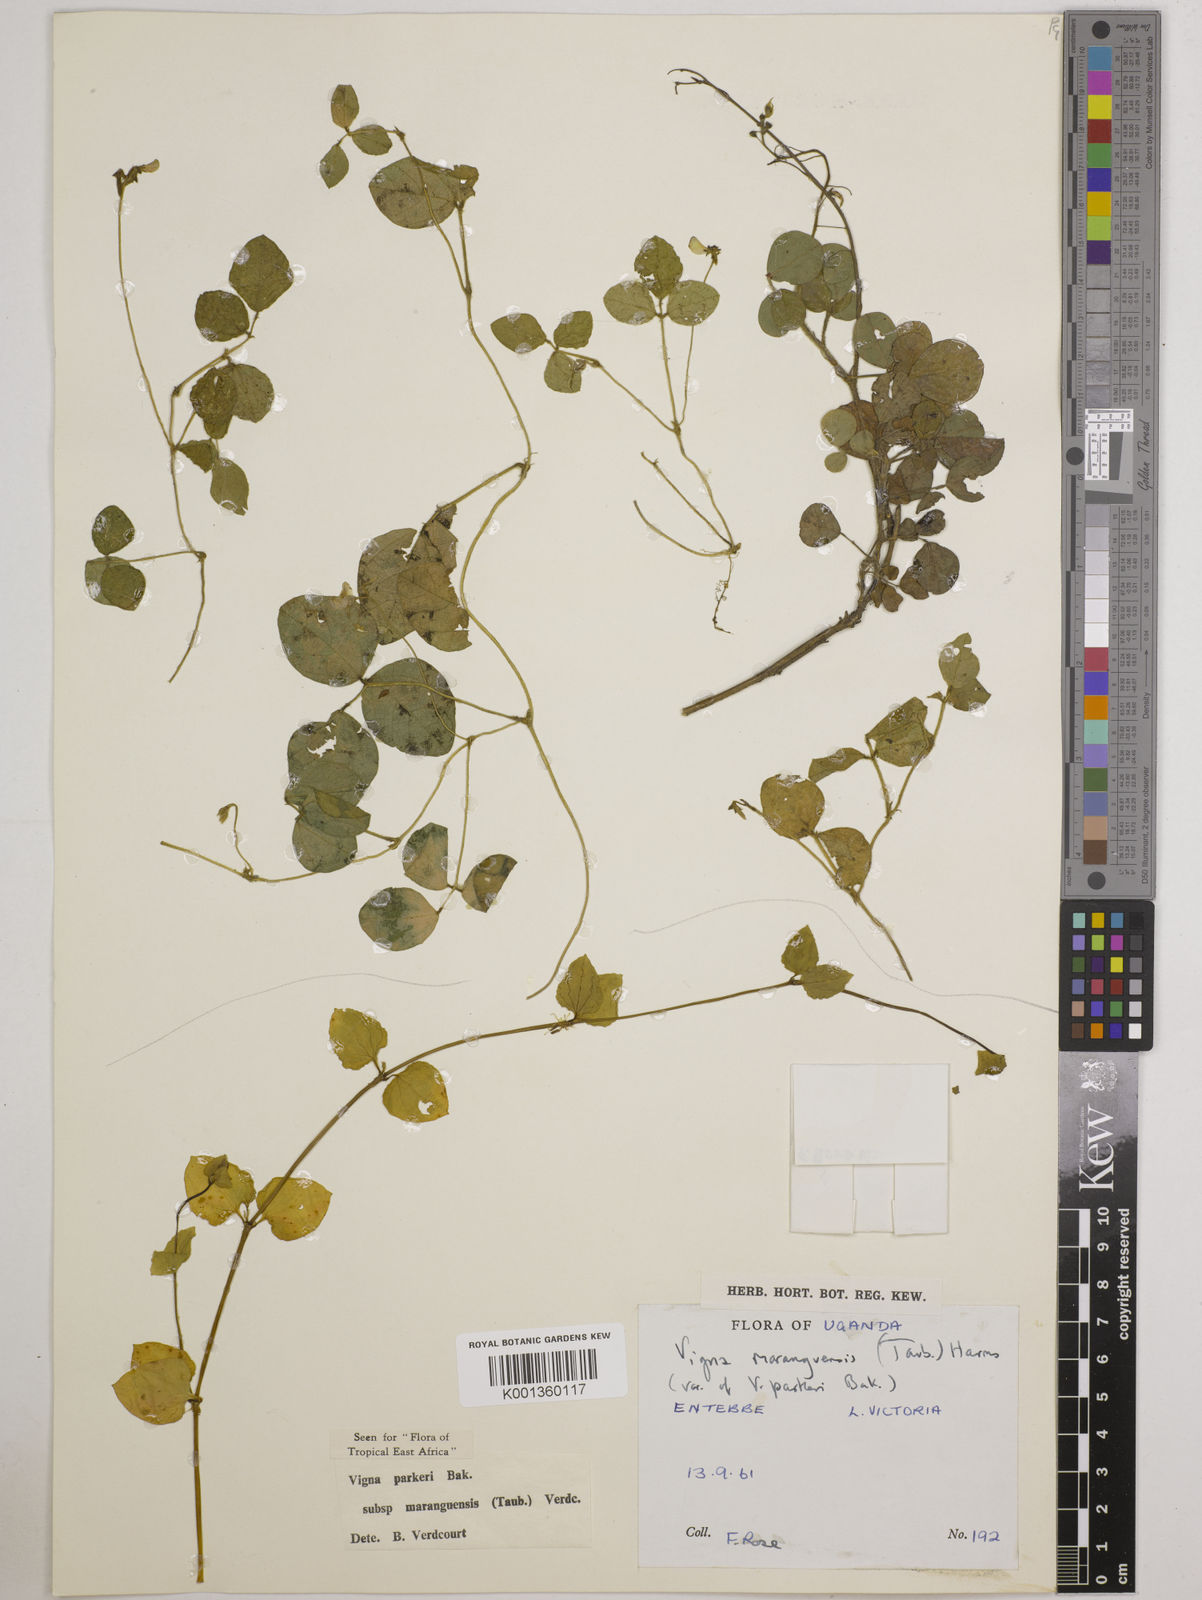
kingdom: Plantae
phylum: Tracheophyta
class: Magnoliopsida
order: Fabales
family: Fabaceae
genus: Vigna
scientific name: Vigna
